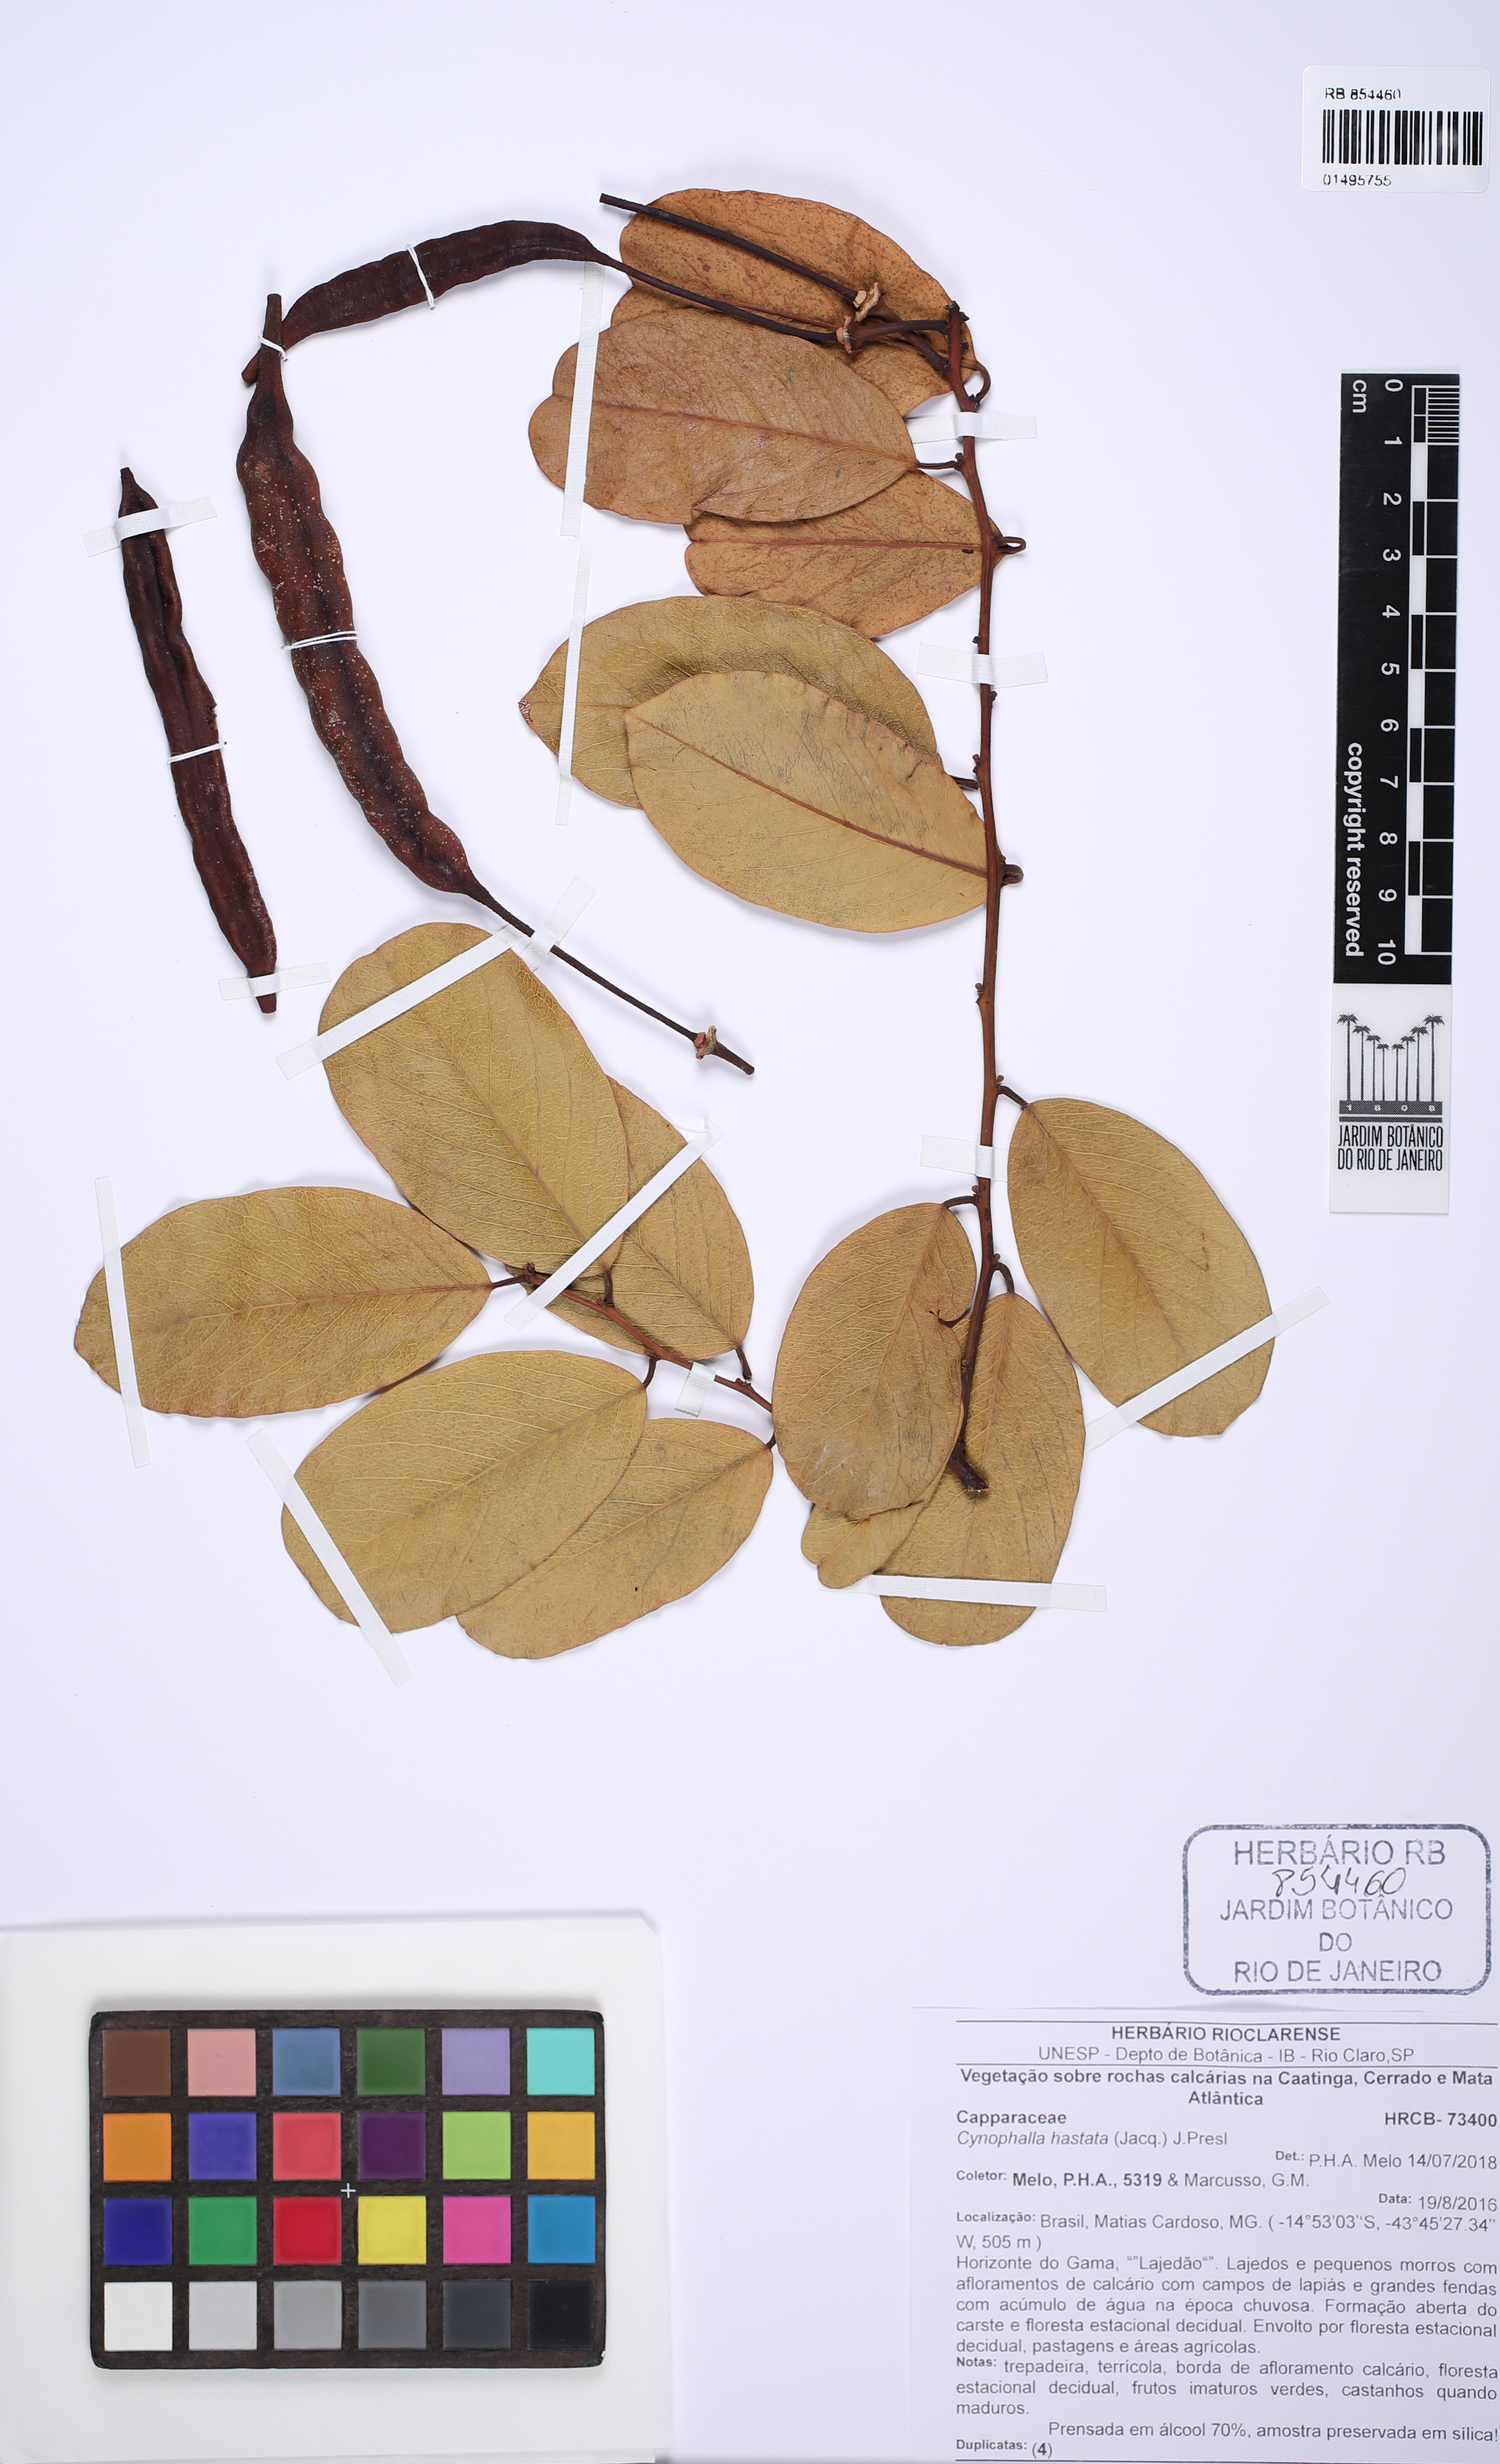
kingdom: Plantae
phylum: Tracheophyta
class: Magnoliopsida
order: Brassicales
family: Capparaceae
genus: Cynophalla
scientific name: Cynophalla hastata
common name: Broadleaf cape
